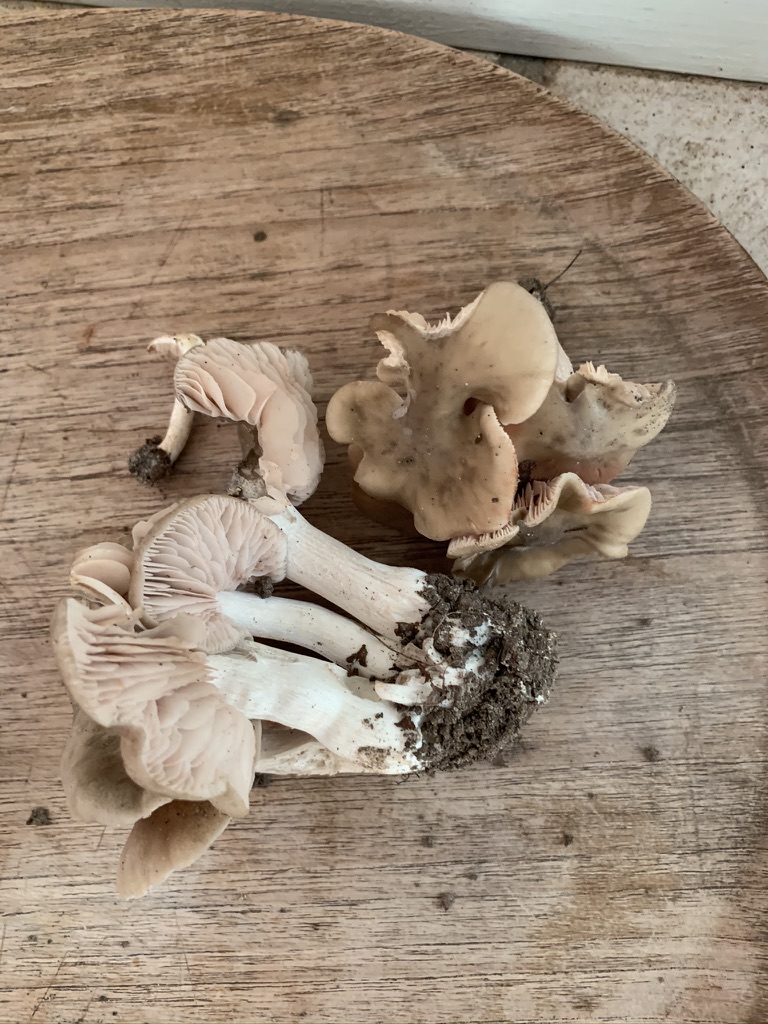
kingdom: Fungi
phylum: Basidiomycota
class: Agaricomycetes
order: Agaricales
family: Entolomataceae
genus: Entoloma
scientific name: Entoloma lividoalbum
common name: lysstokket rødblad
